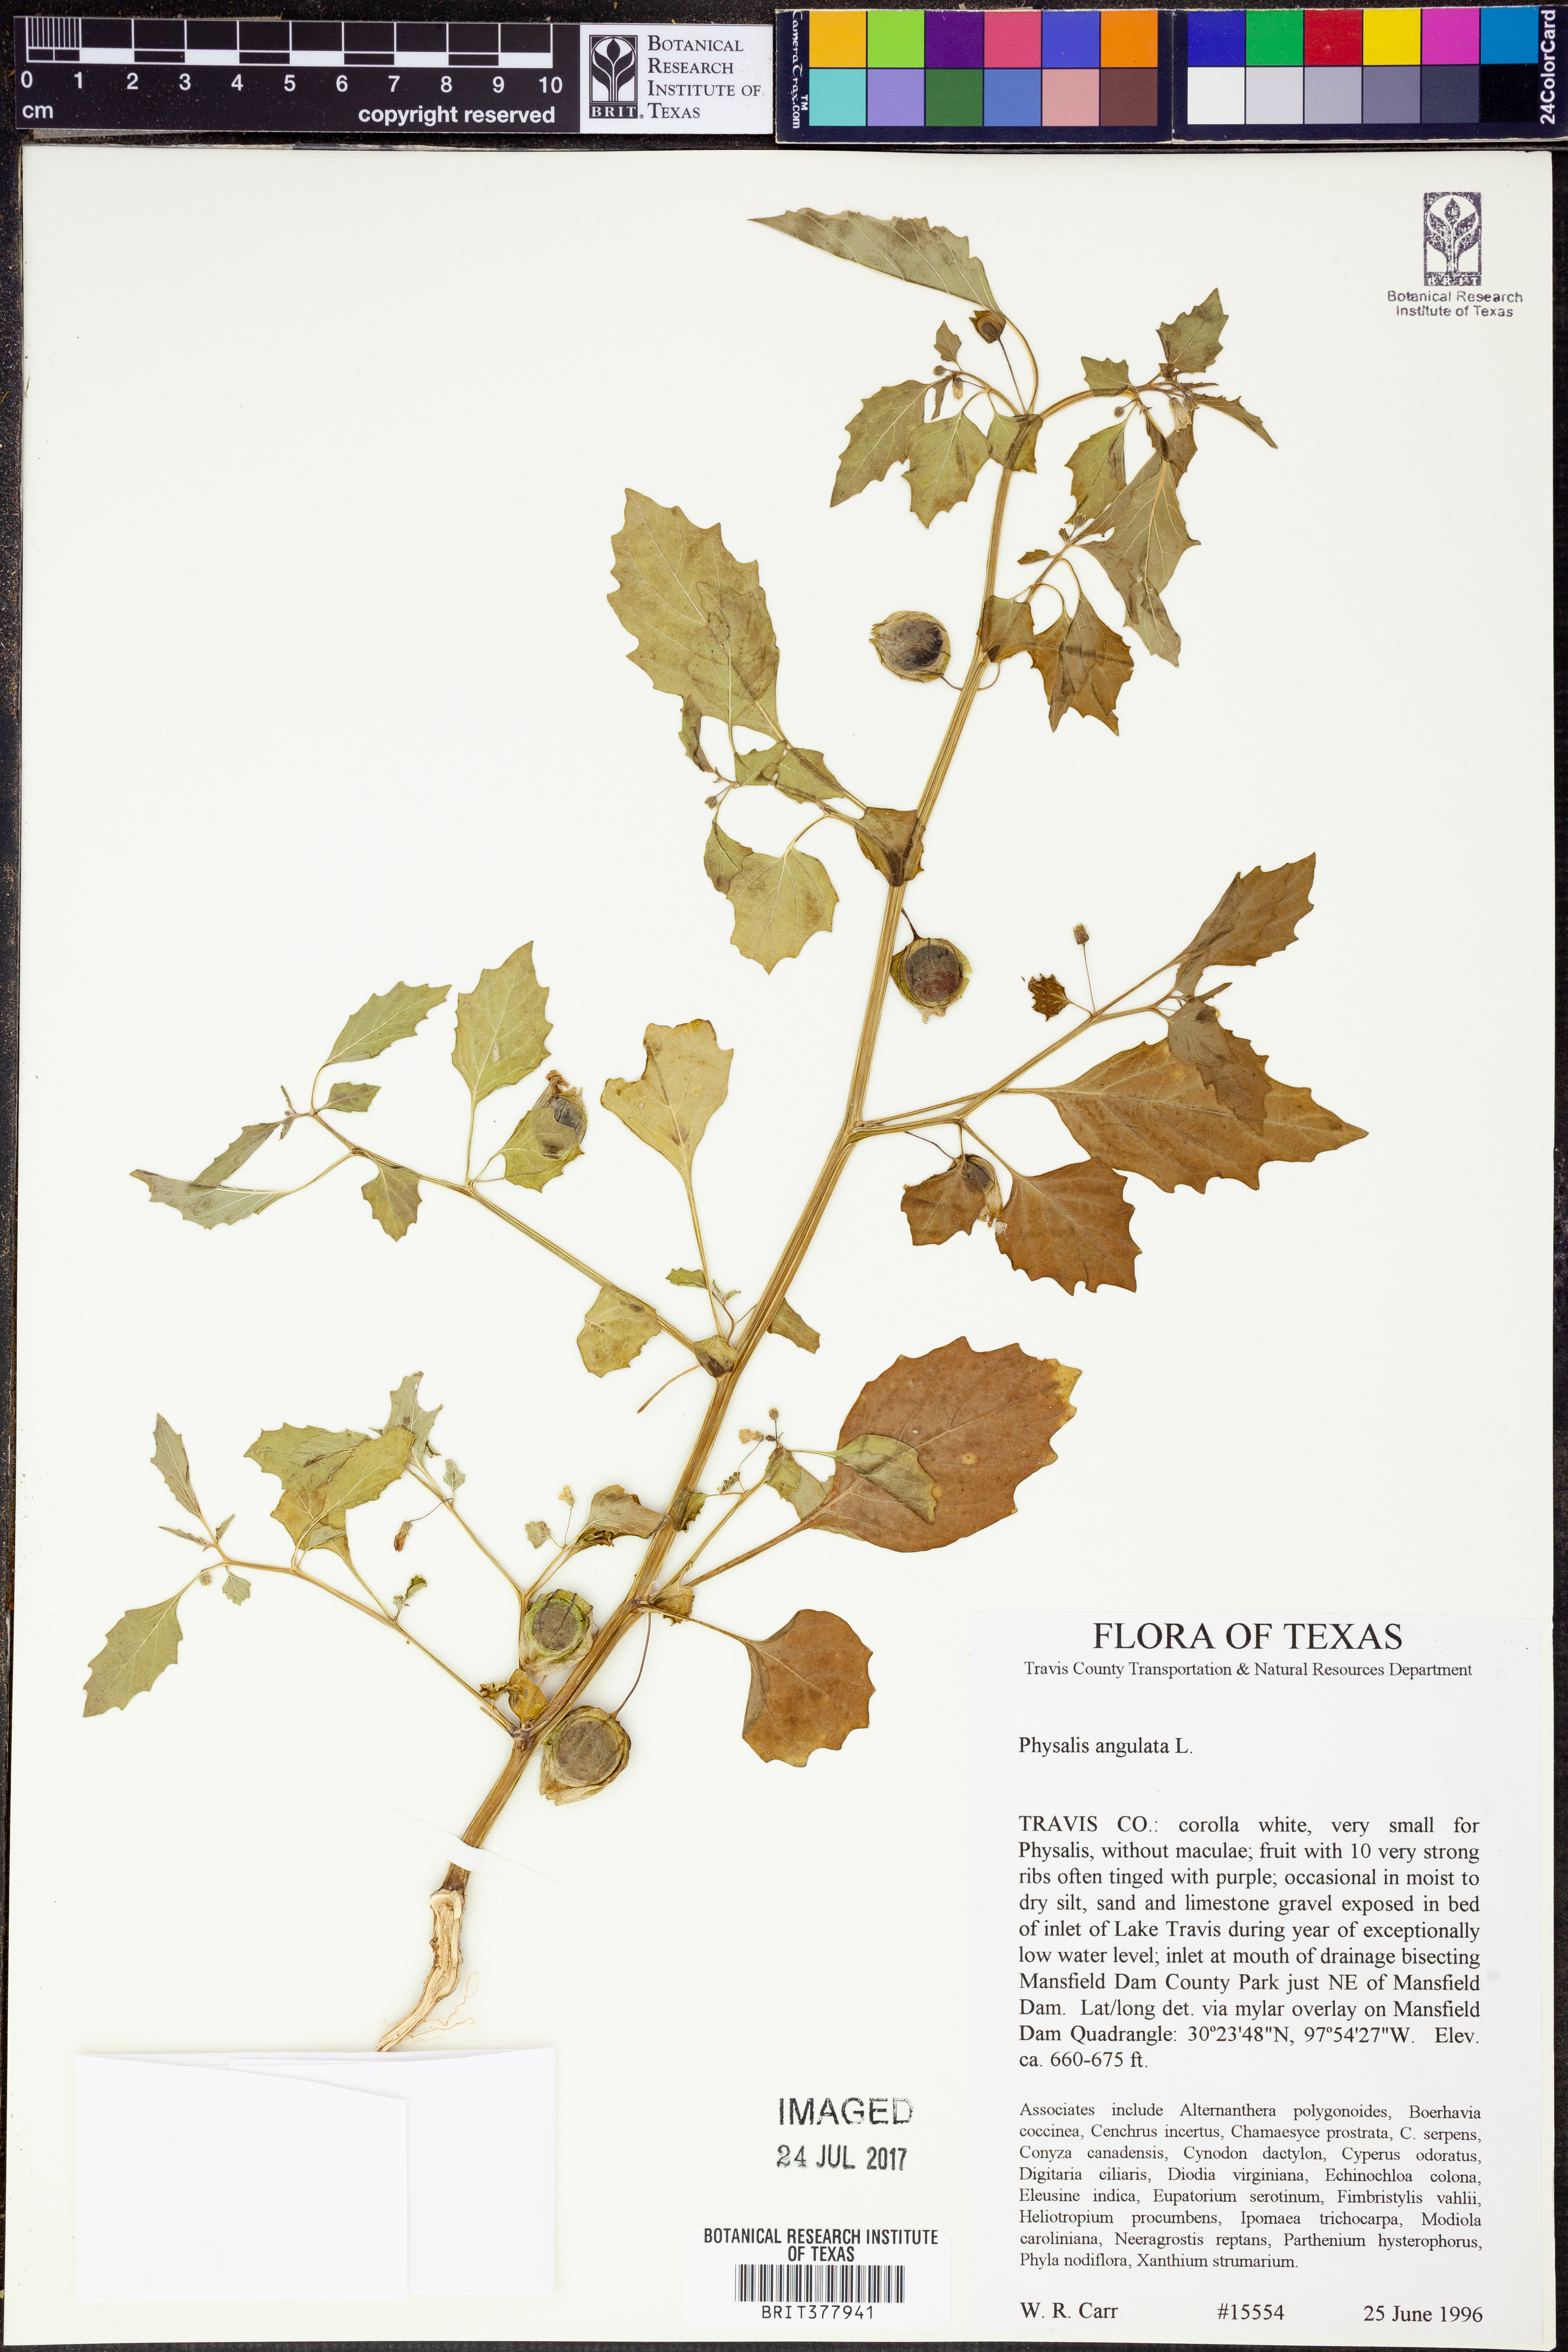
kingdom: Plantae
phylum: Tracheophyta
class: Magnoliopsida
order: Solanales
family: Solanaceae
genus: Physalis
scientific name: Physalis angulata
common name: Angular winter-cherry
